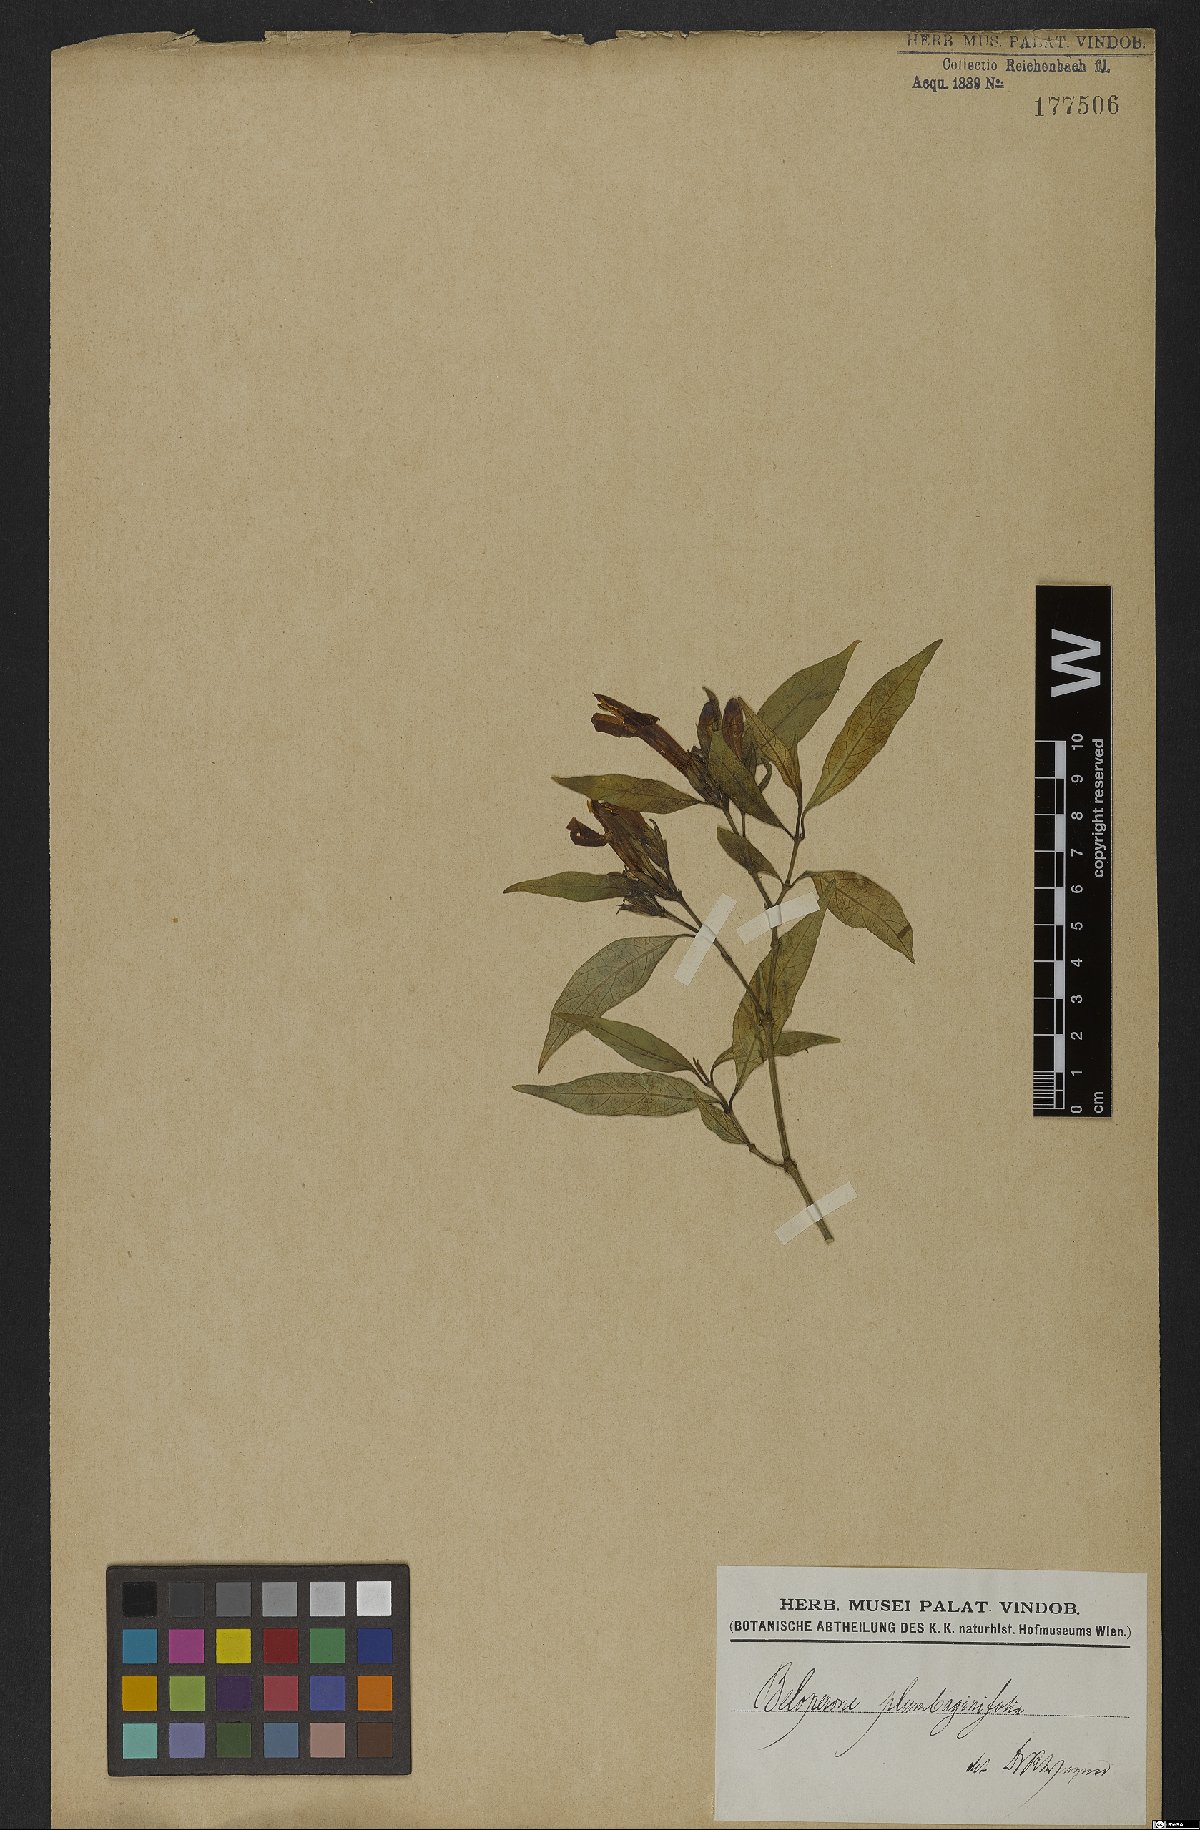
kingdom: Plantae
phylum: Tracheophyta
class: Magnoliopsida
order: Lamiales
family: Acanthaceae
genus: Justicia
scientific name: Justicia plumbaginifolia
